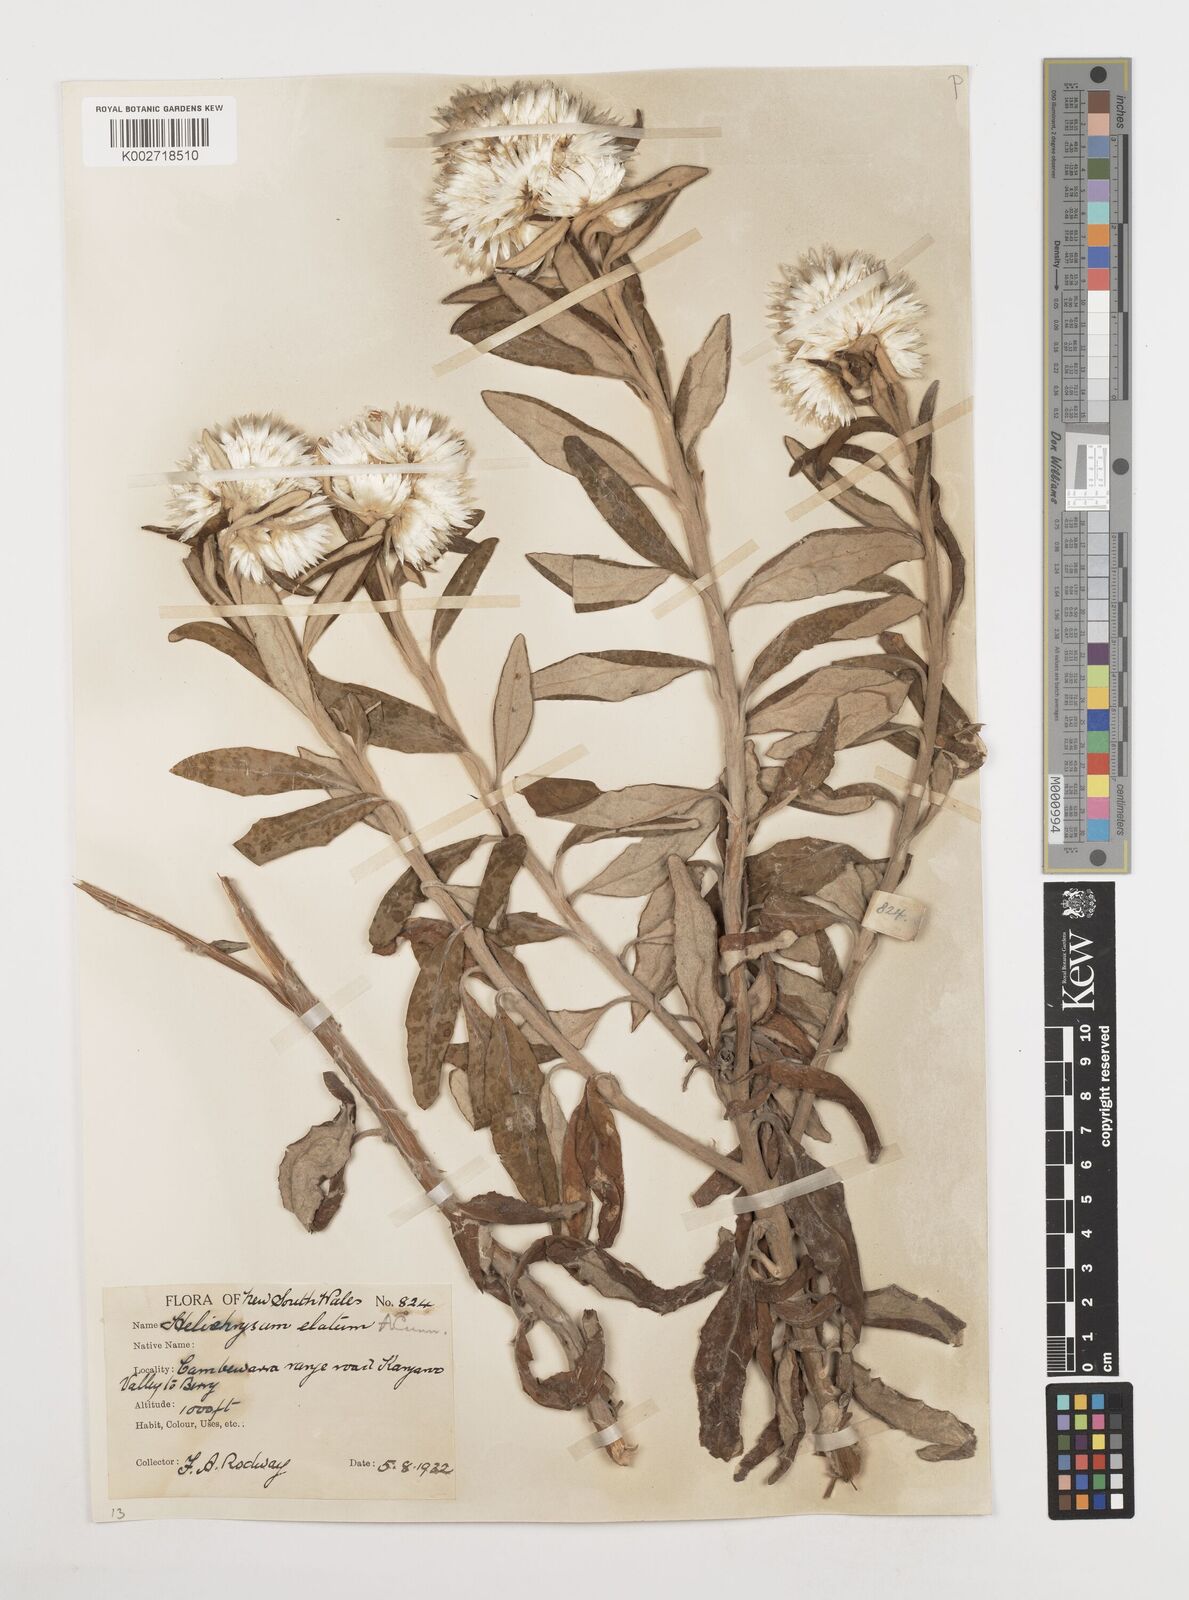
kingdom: Plantae
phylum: Tracheophyta
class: Magnoliopsida
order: Asterales
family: Asteraceae
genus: Leucozoma
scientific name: Leucozoma elatum
